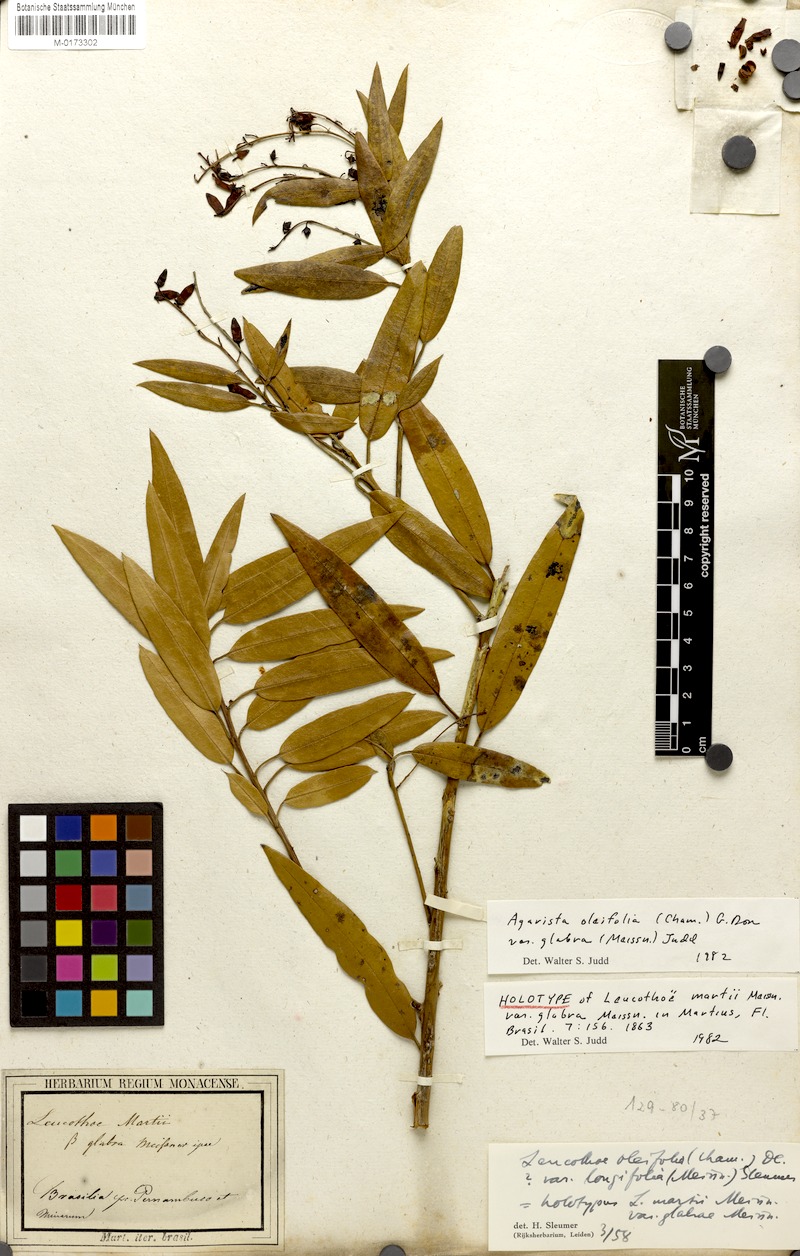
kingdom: Plantae
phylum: Tracheophyta
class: Magnoliopsida
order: Ericales
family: Ericaceae
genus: Agarista
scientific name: Agarista oleifolia
